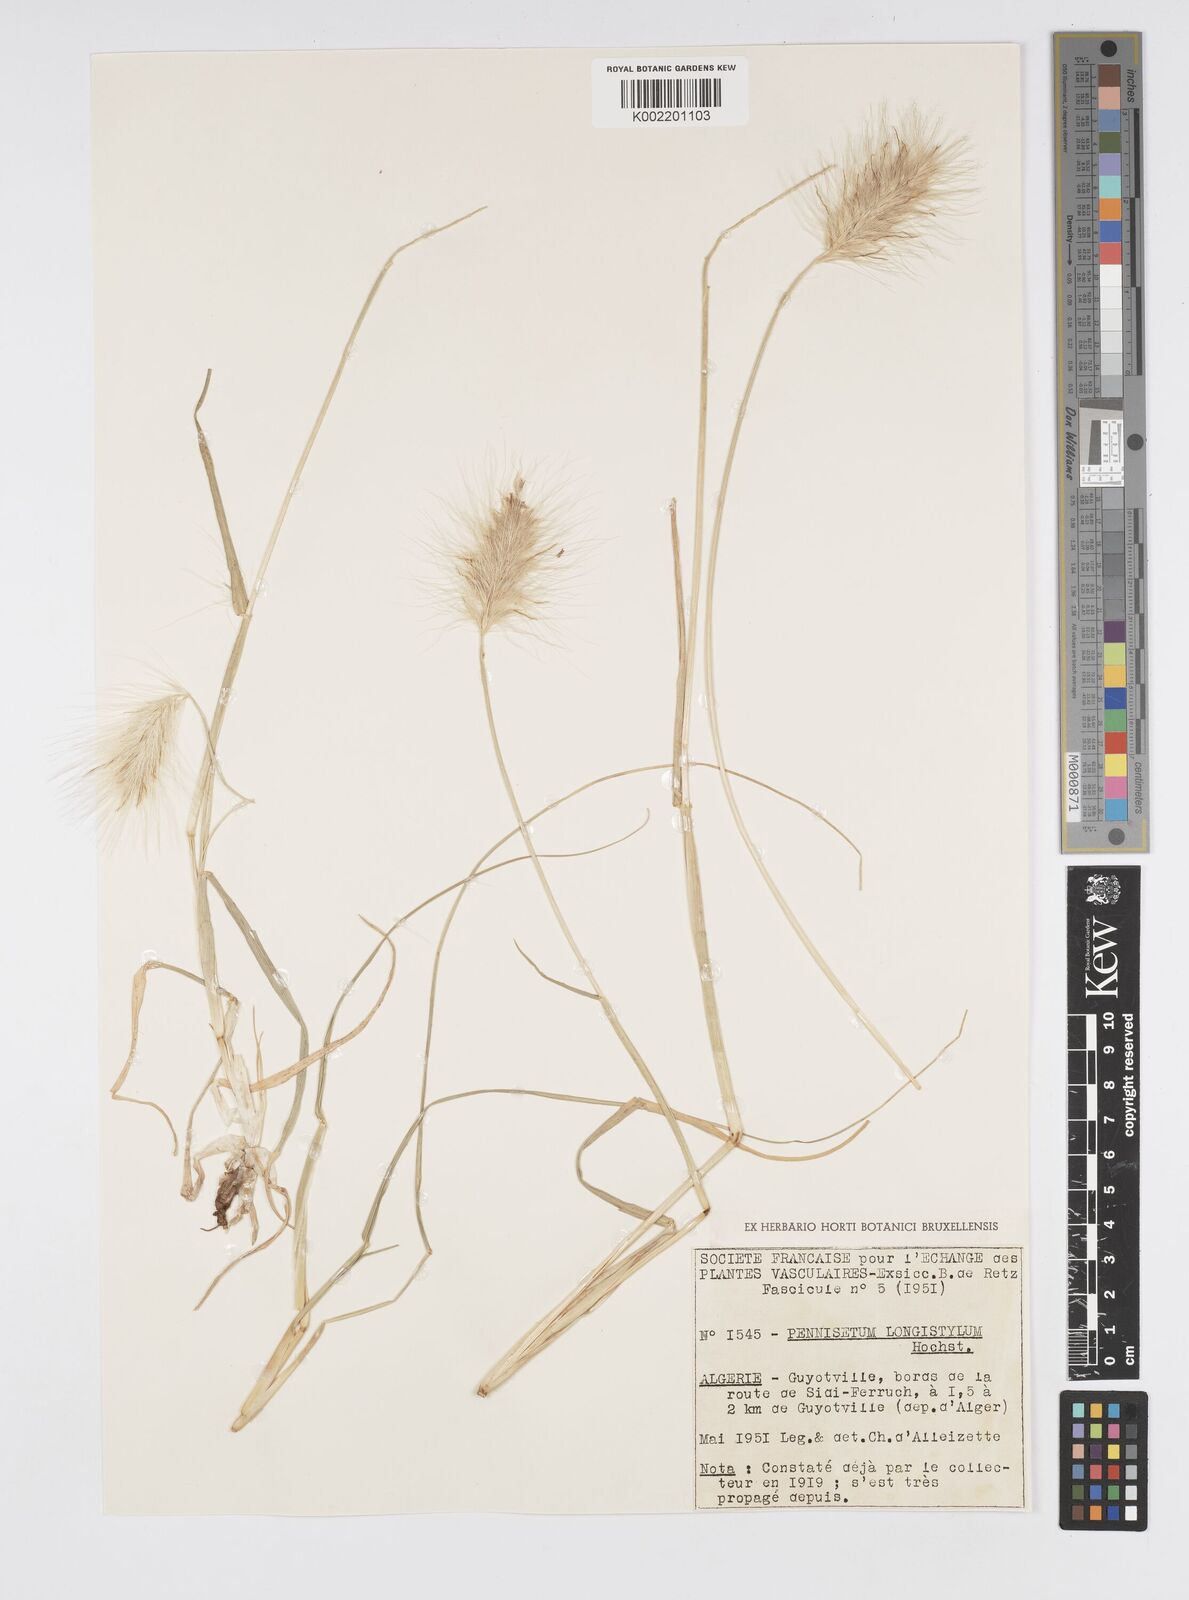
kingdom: Plantae
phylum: Tracheophyta
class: Liliopsida
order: Poales
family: Poaceae
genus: Cenchrus
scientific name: Cenchrus longisetus
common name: Feathertop
